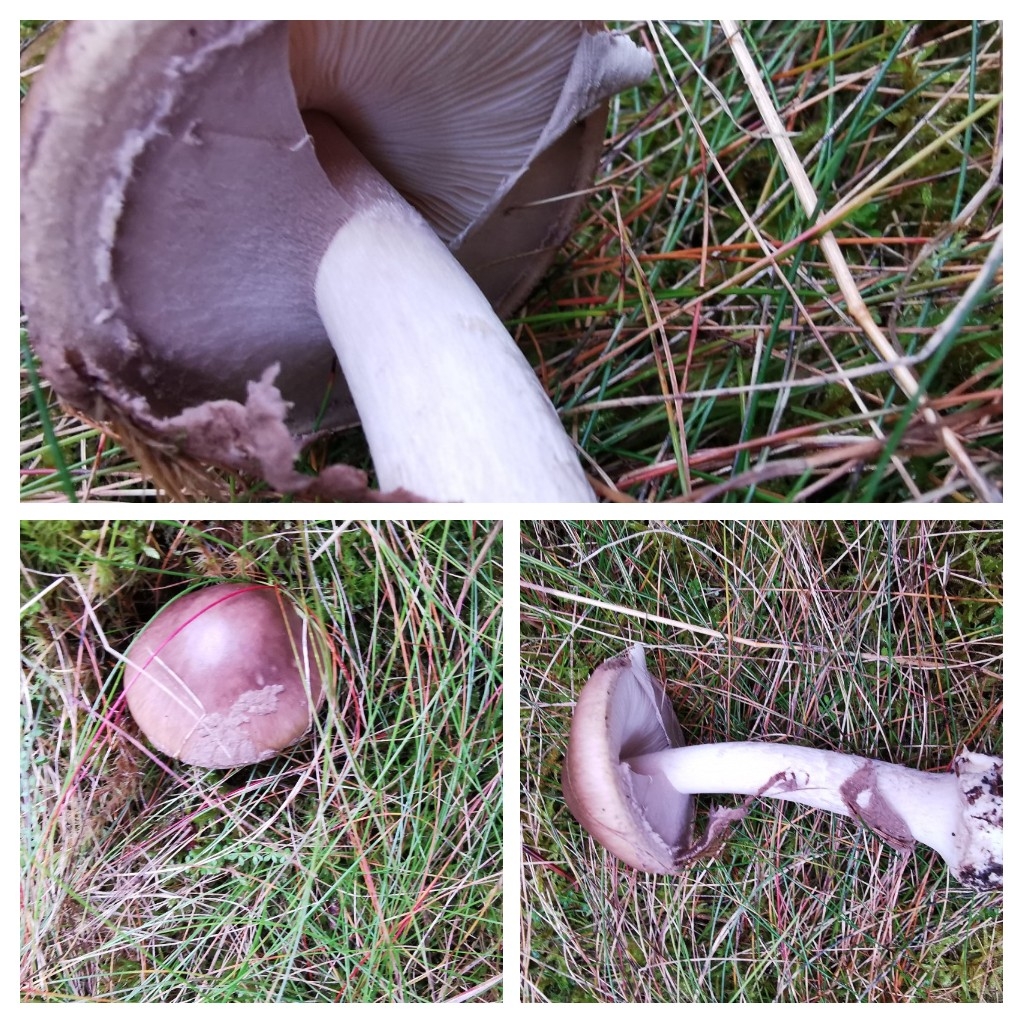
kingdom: Fungi
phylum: Basidiomycota
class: Agaricomycetes
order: Agaricales
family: Amanitaceae
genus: Amanita
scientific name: Amanita porphyria
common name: porfyr-fluesvamp
